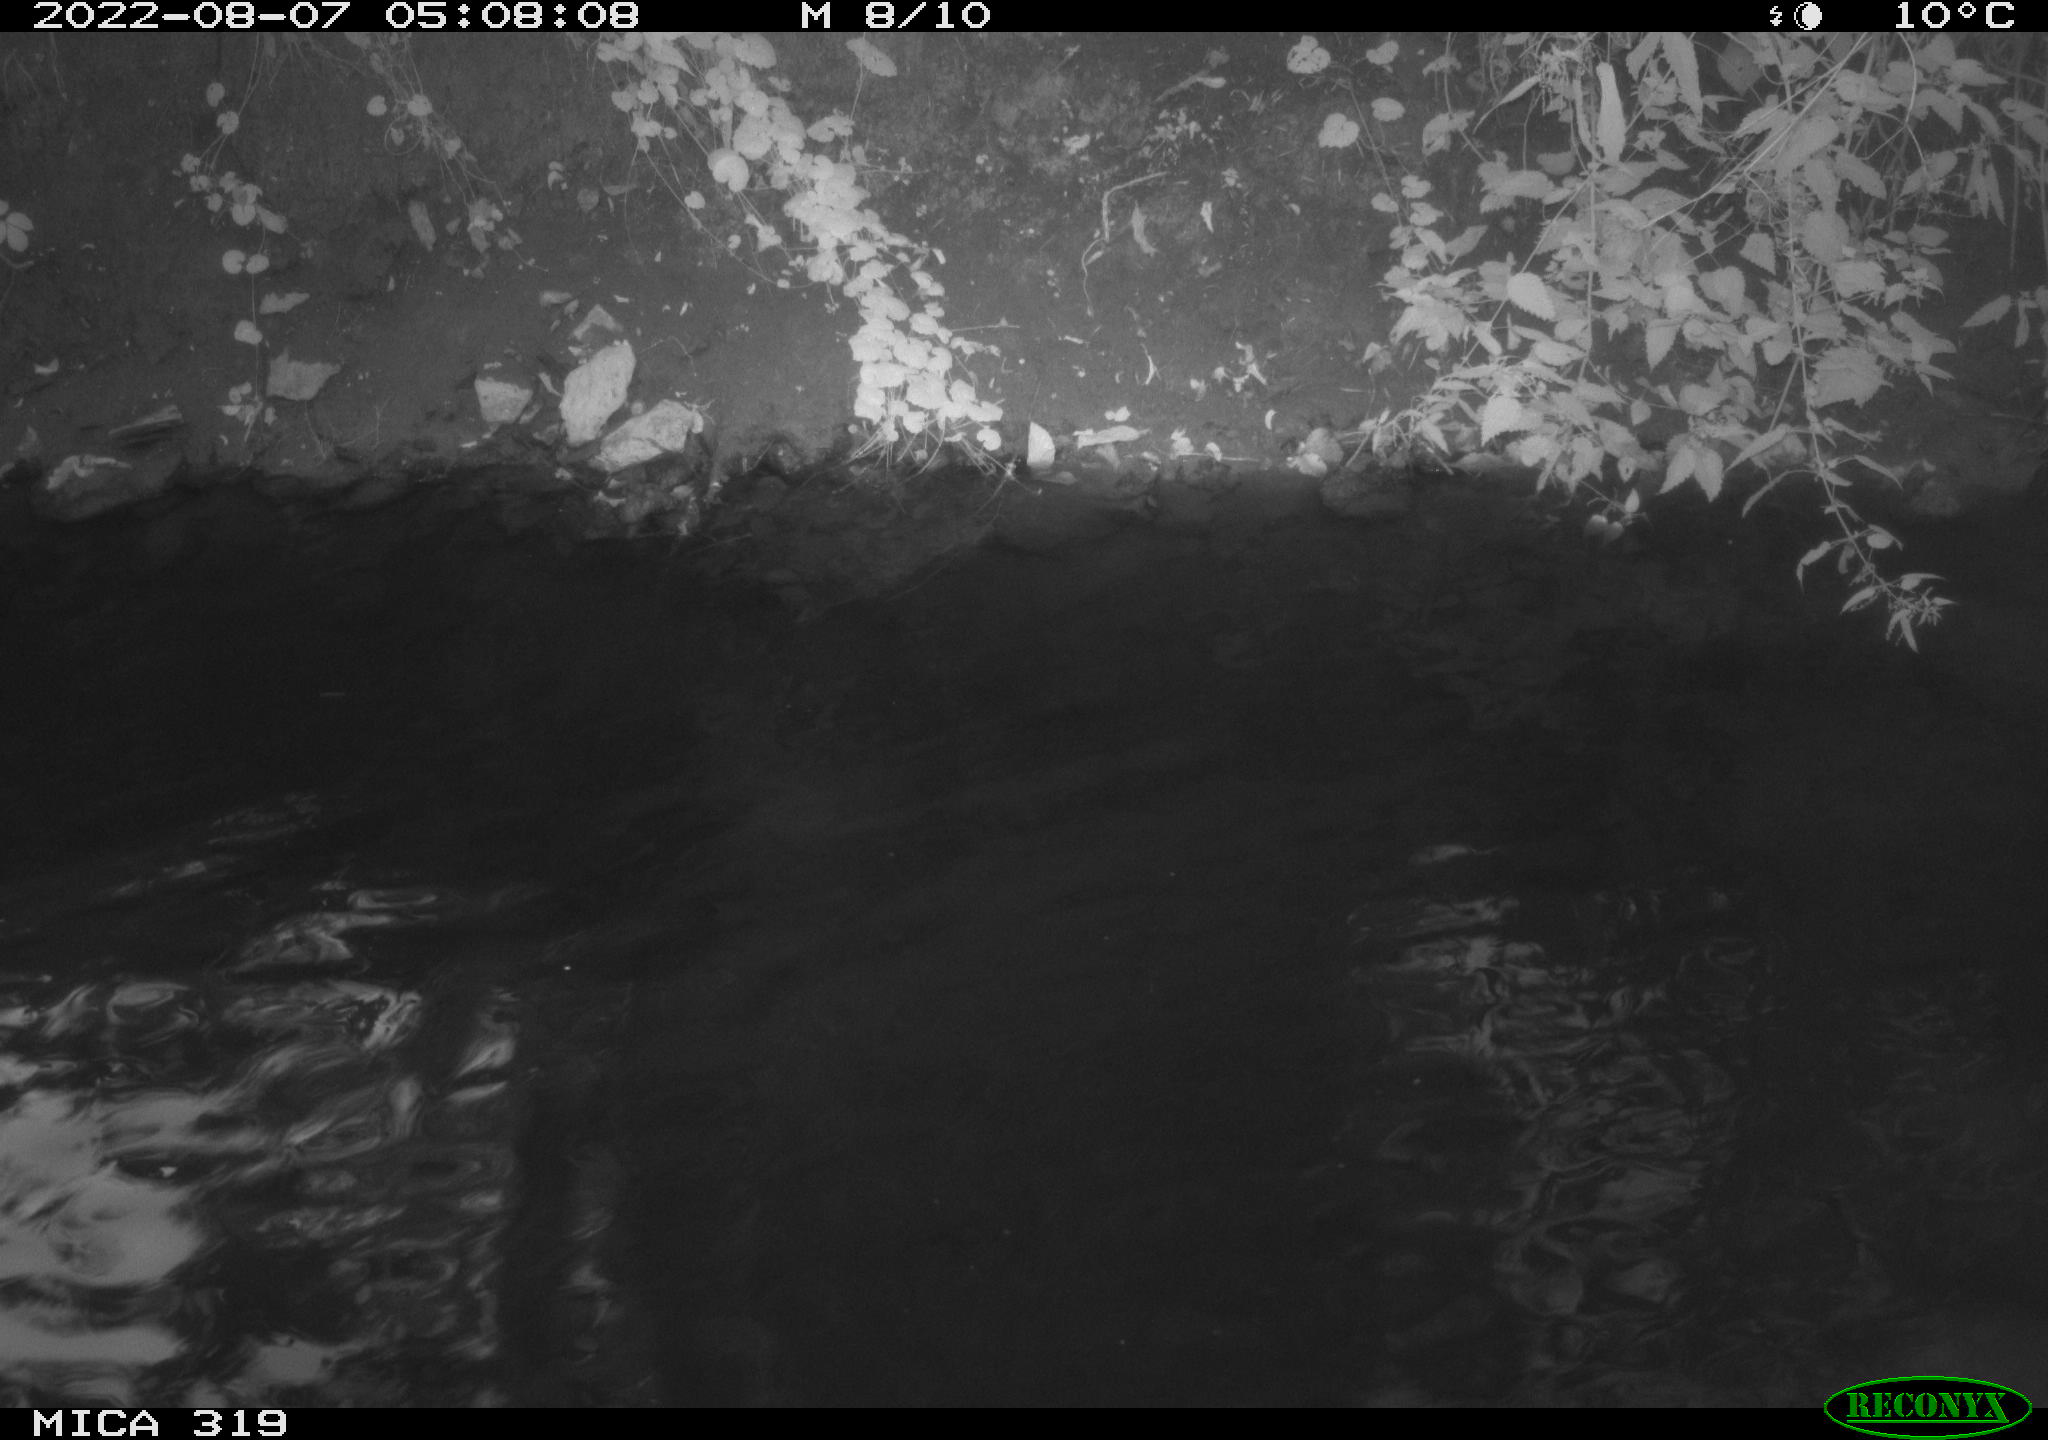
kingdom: Animalia
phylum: Chordata
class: Aves
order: Anseriformes
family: Anatidae
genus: Anas
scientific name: Anas
